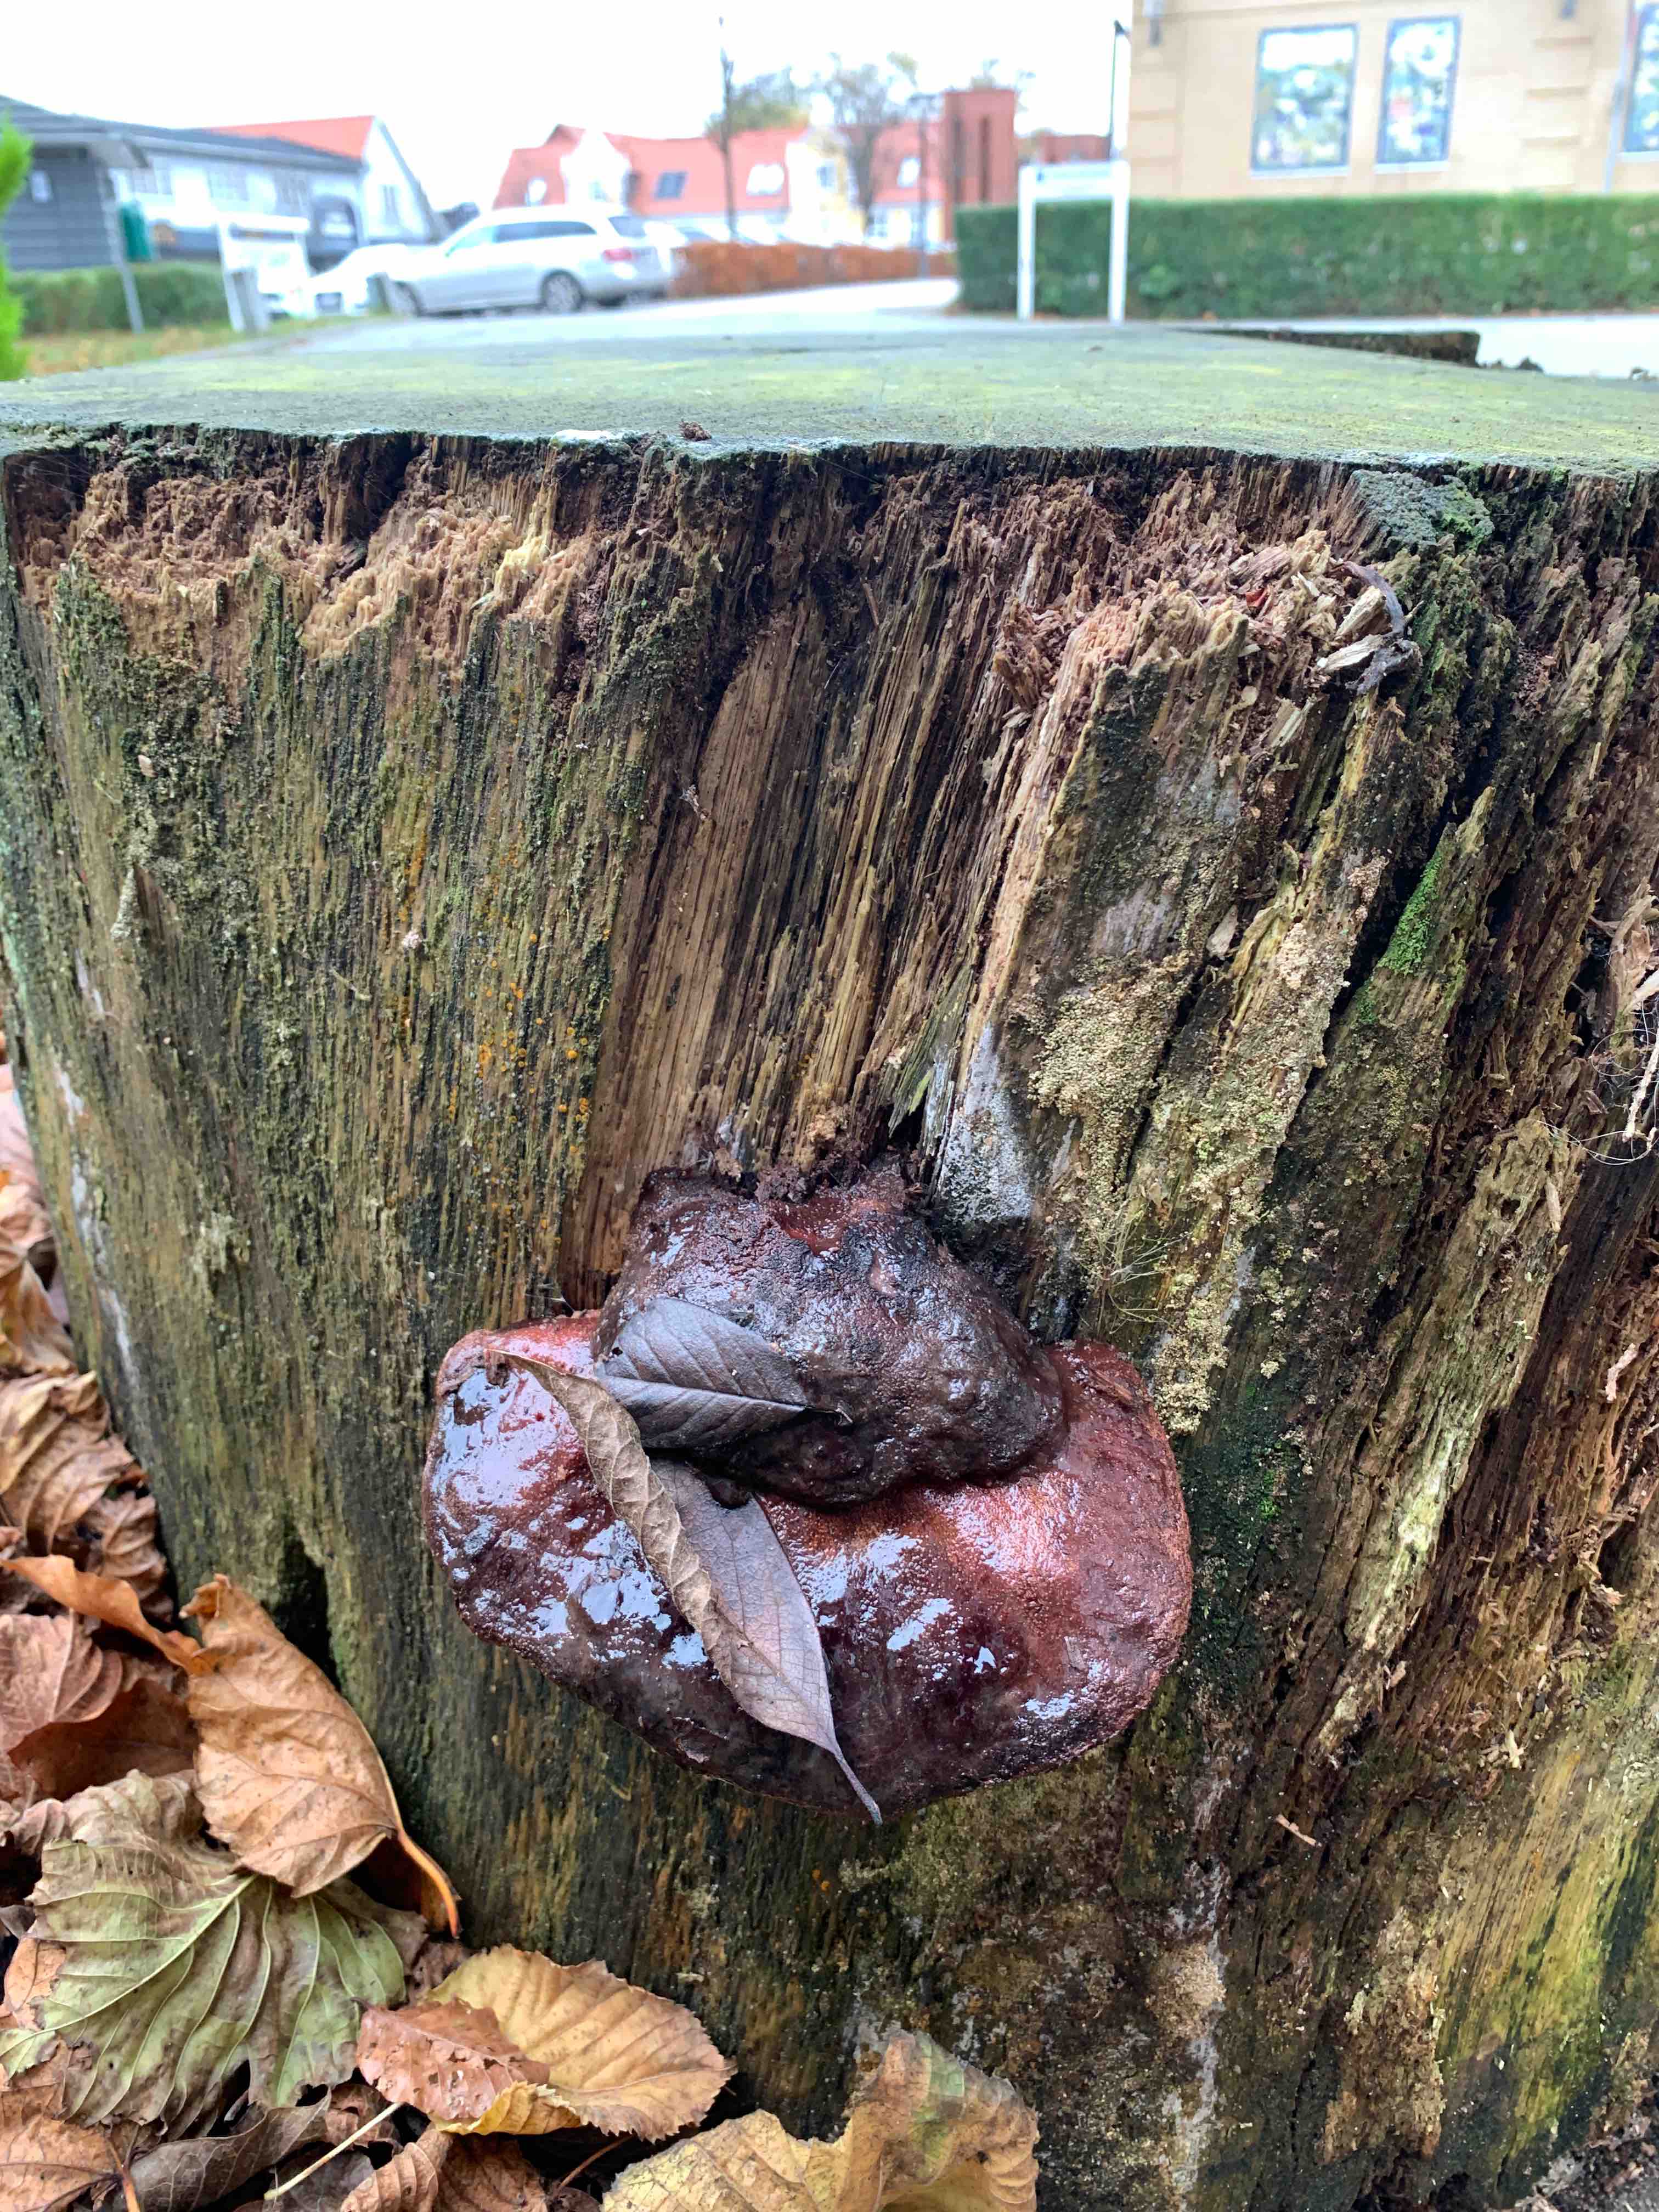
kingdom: Fungi
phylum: Basidiomycota
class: Agaricomycetes
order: Agaricales
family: Fistulinaceae
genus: Fistulina
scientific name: Fistulina hepatica
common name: oksetunge
